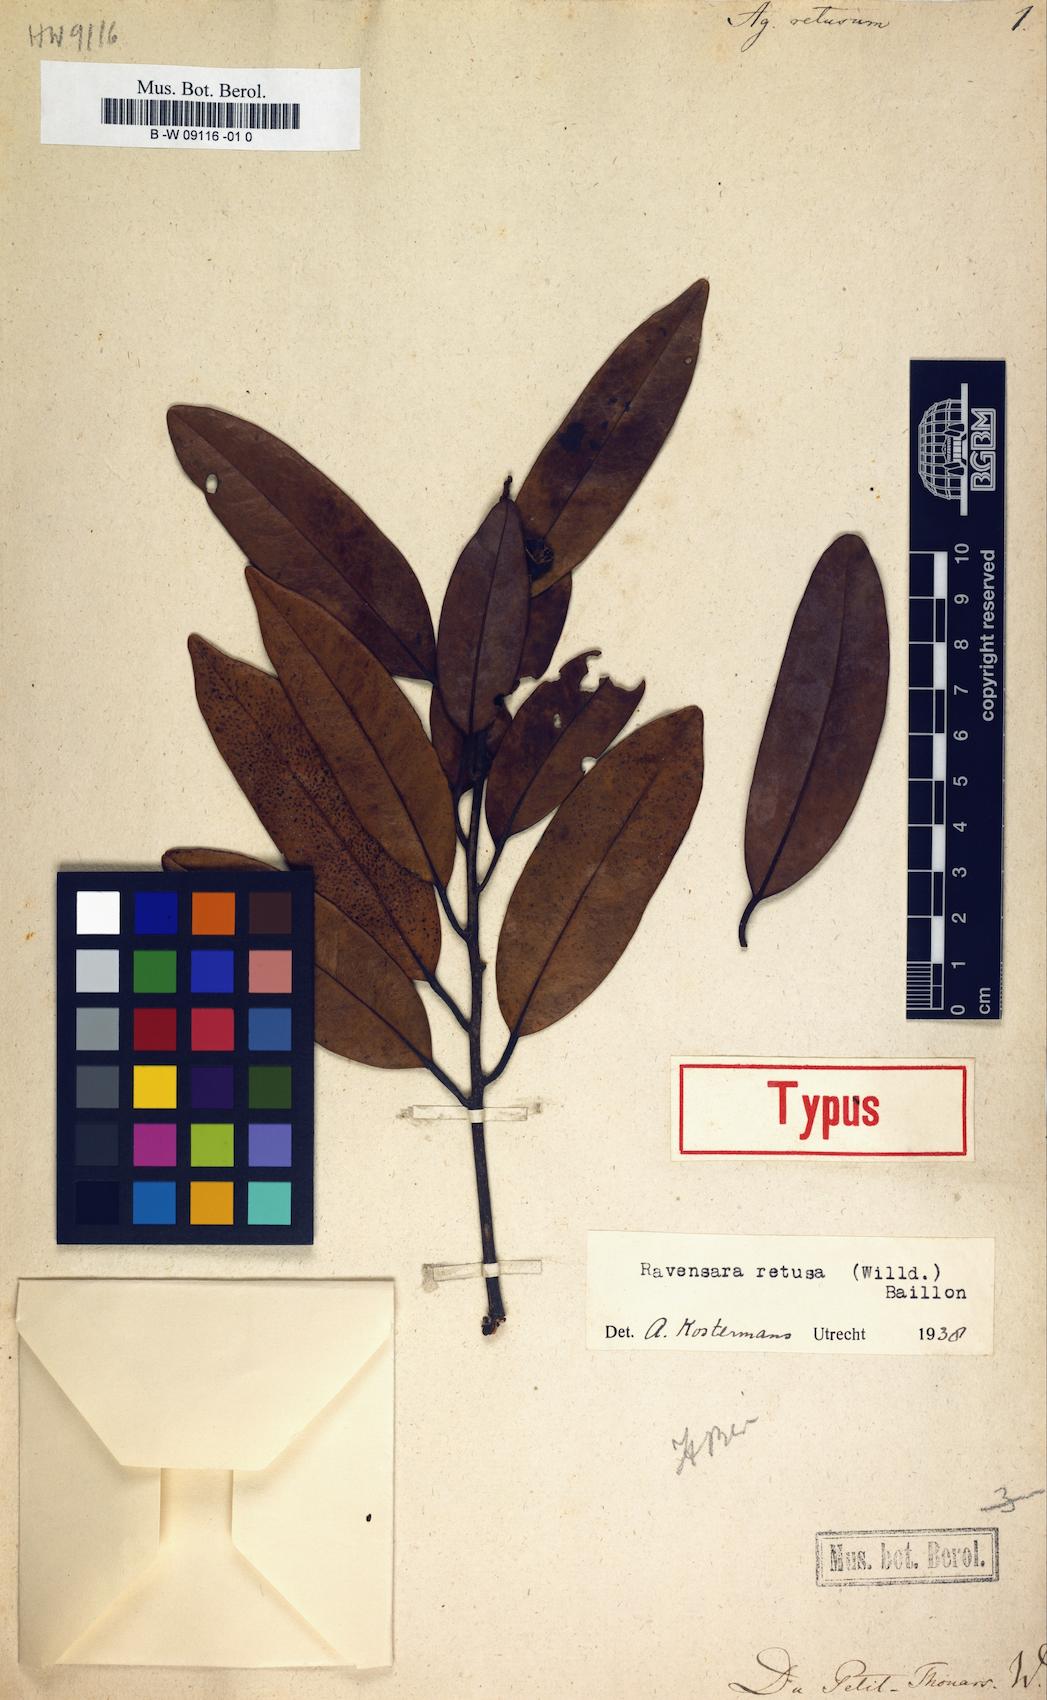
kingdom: Plantae
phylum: Tracheophyta
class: Magnoliopsida
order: Laurales
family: Lauraceae
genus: Cryptocarya
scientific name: Cryptocarya retusa
